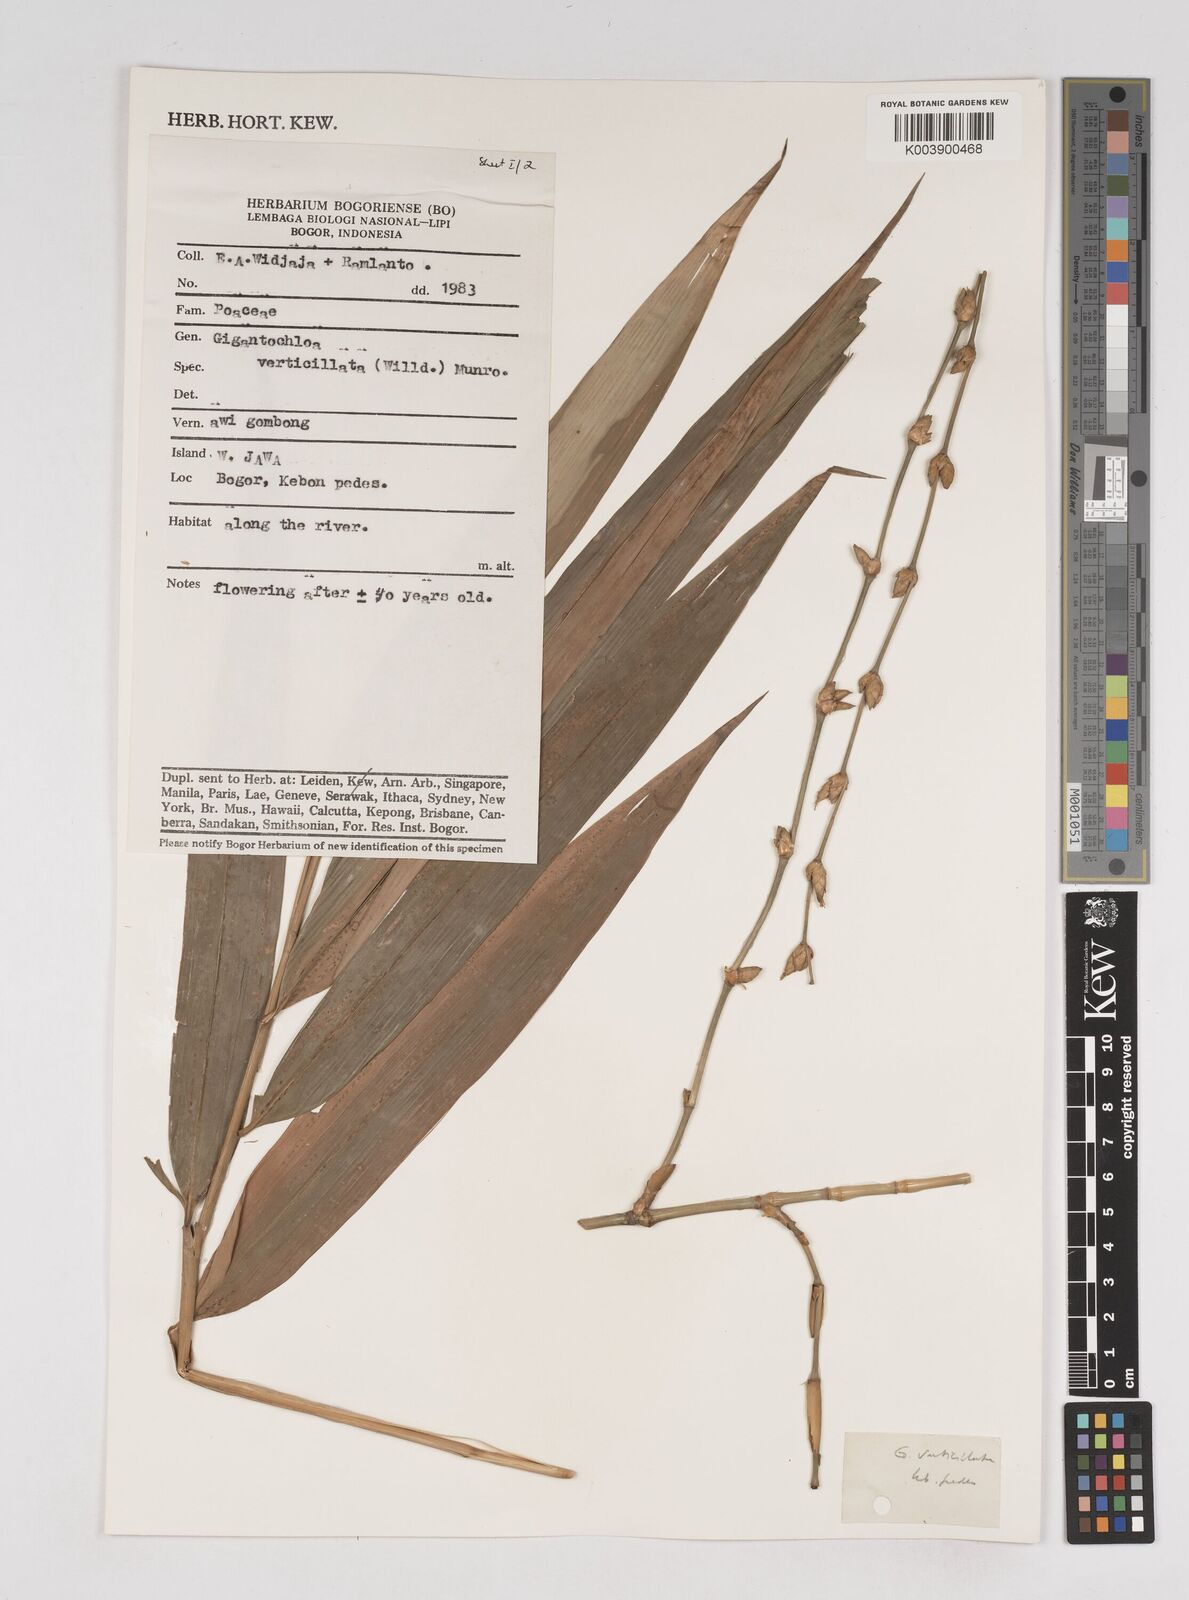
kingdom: Plantae
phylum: Tracheophyta
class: Liliopsida
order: Poales
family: Poaceae
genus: Gigantochloa
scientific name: Gigantochloa verticillata
